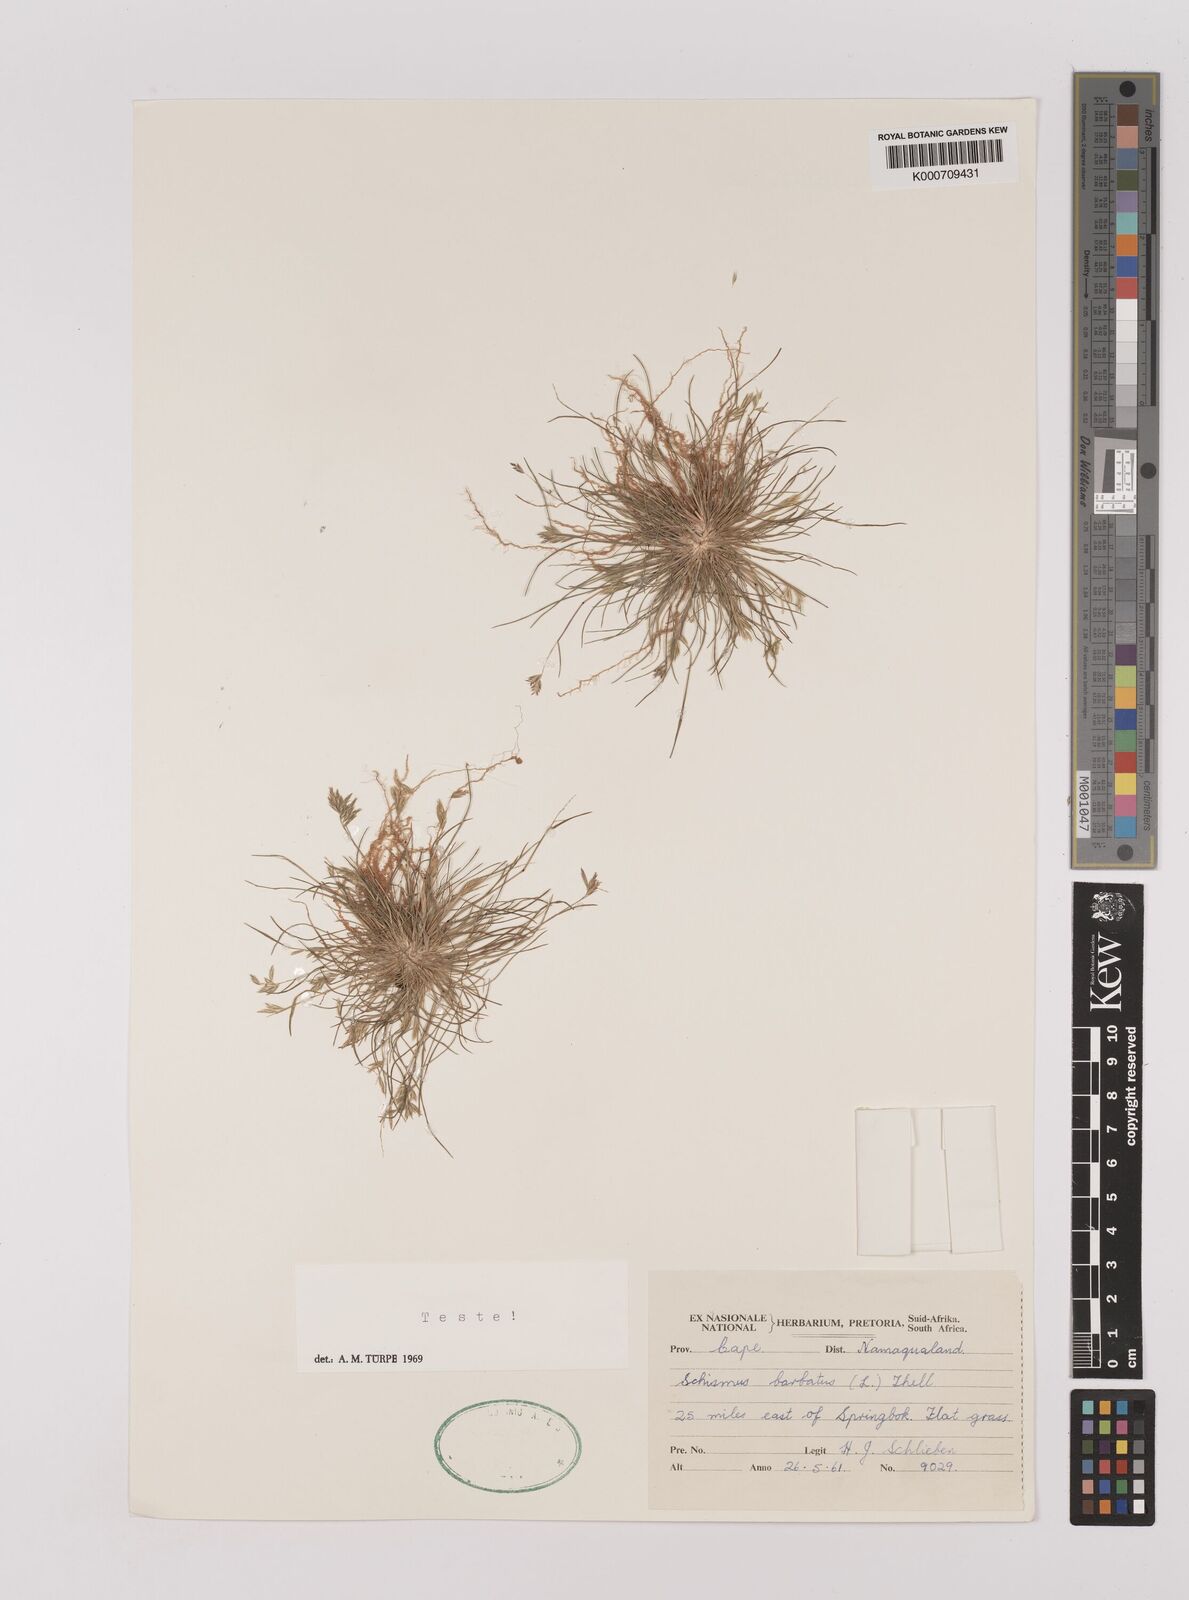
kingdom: Plantae
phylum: Tracheophyta
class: Liliopsida
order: Poales
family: Poaceae
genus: Schismus
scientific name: Schismus barbatus
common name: Kelch-grass
